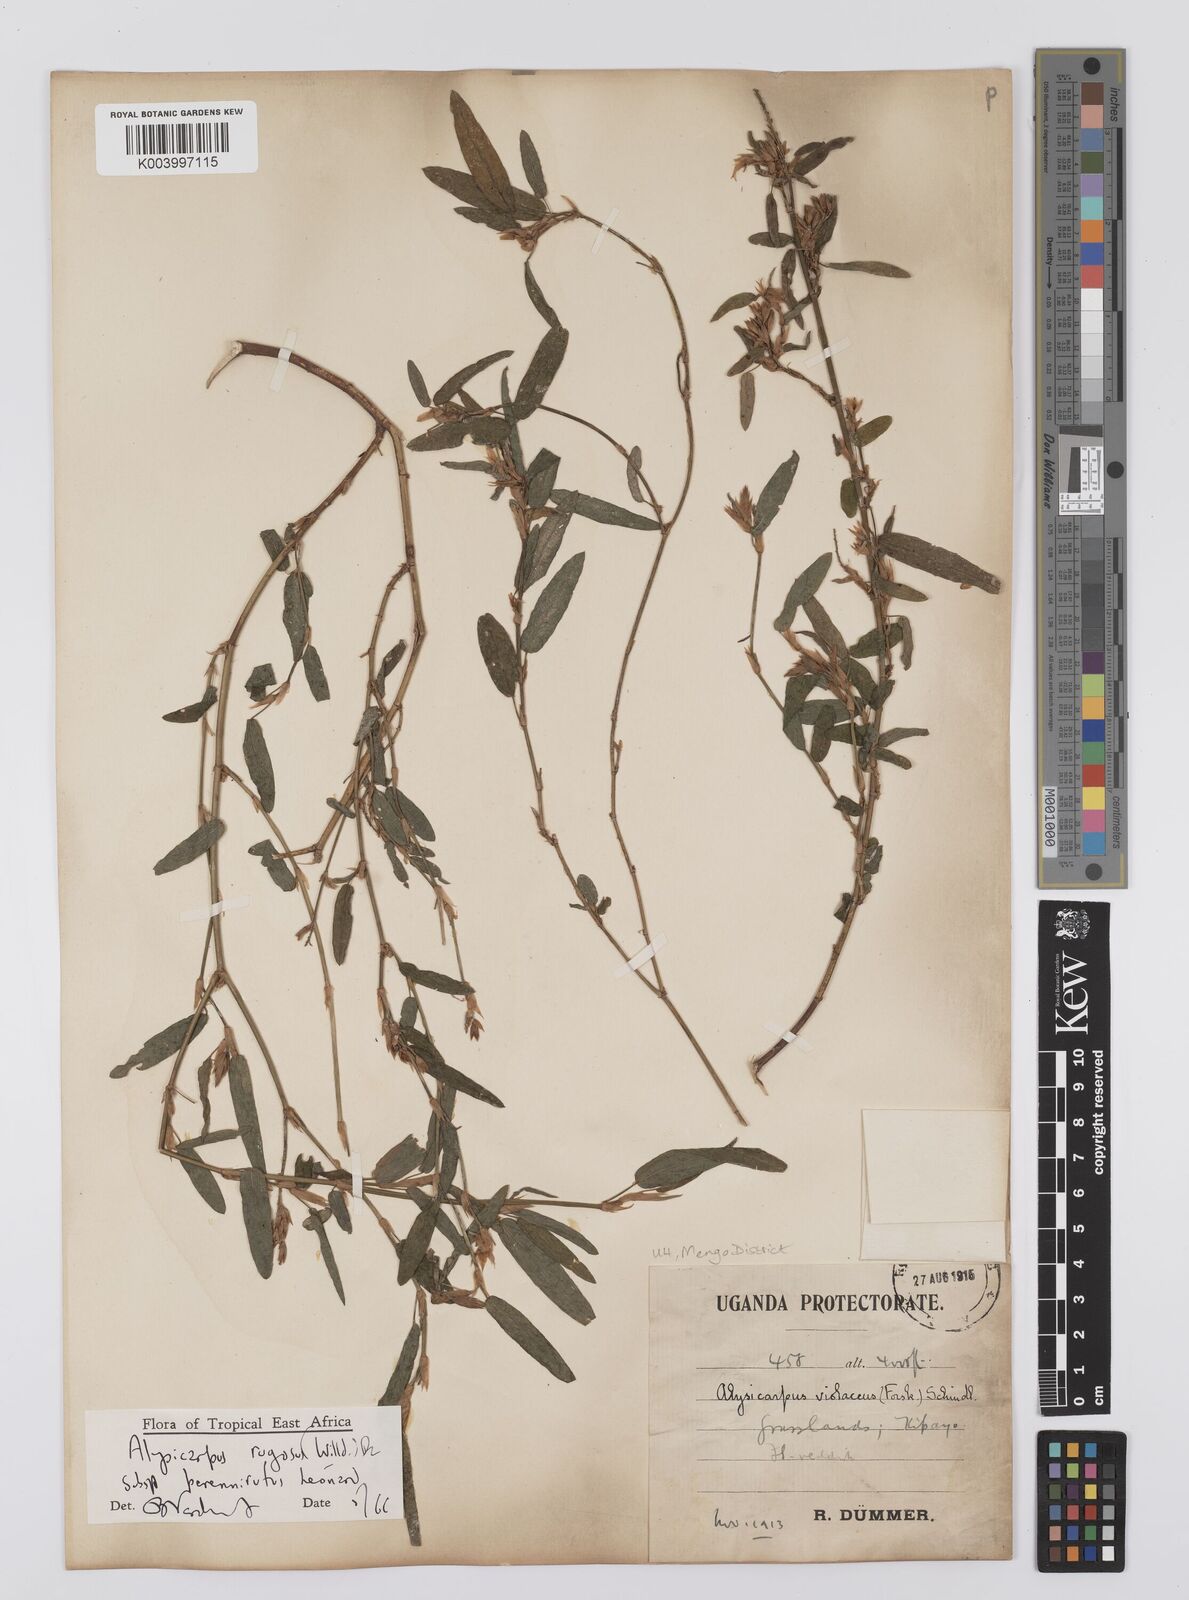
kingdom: Plantae
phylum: Tracheophyta
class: Magnoliopsida
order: Fabales
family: Fabaceae
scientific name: Fabaceae
